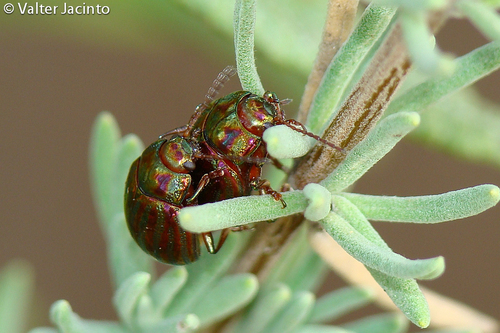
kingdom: Animalia
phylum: Arthropoda
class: Insecta
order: Coleoptera
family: Chrysomelidae
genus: Chrysolina
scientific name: Chrysolina americana
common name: Rosemary beetle
